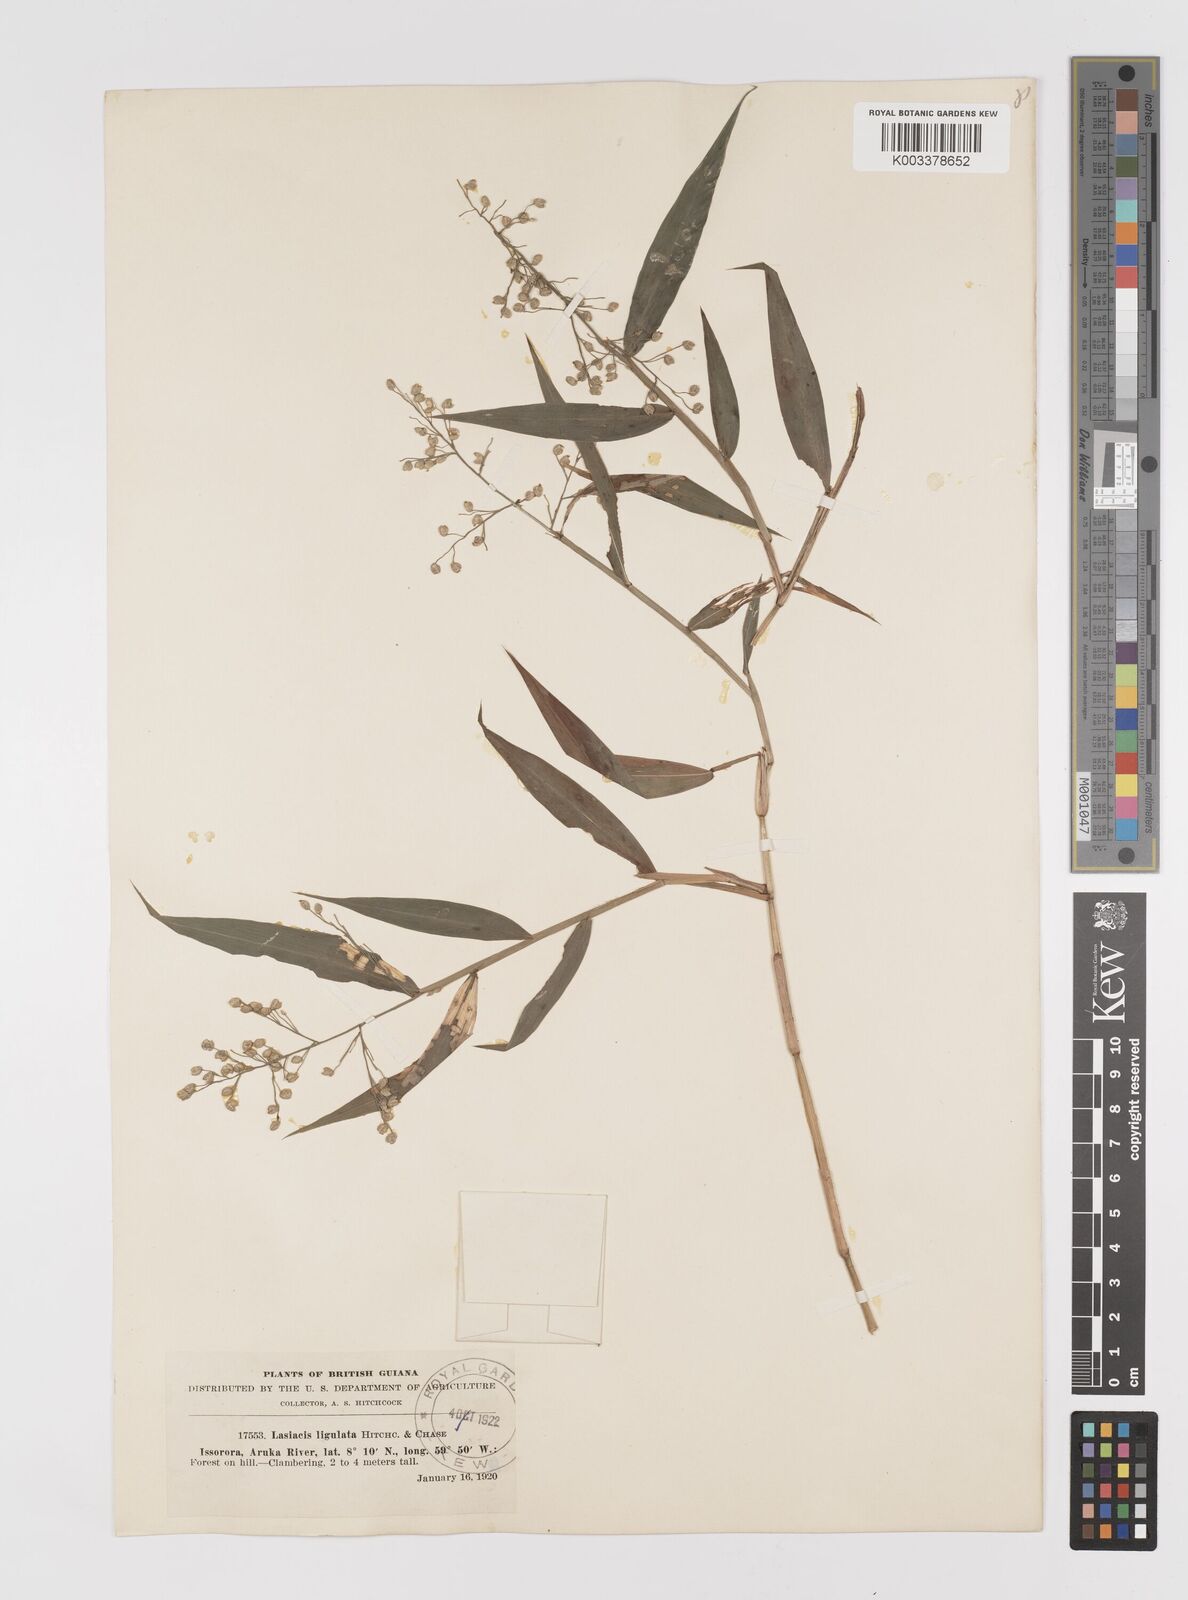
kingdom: Plantae
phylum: Tracheophyta
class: Liliopsida
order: Poales
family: Poaceae
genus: Lasiacis
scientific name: Lasiacis ligulata
